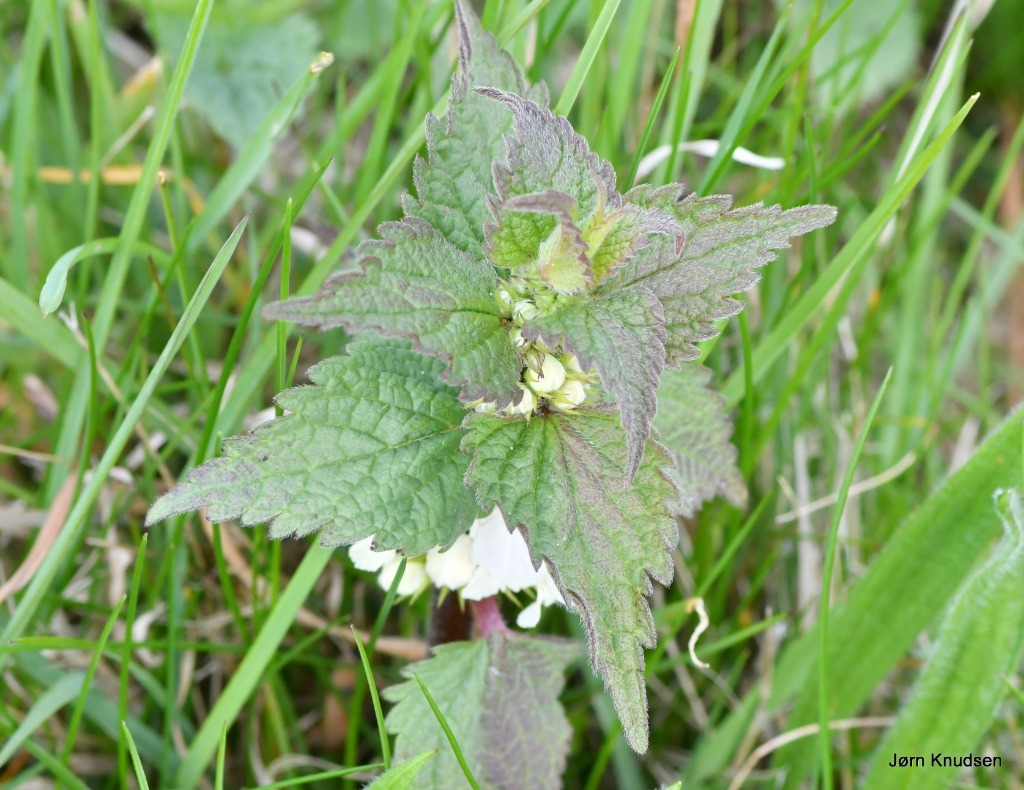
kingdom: Plantae
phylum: Tracheophyta
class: Magnoliopsida
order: Lamiales
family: Lamiaceae
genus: Lamium
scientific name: Lamium album
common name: Døvnælde
